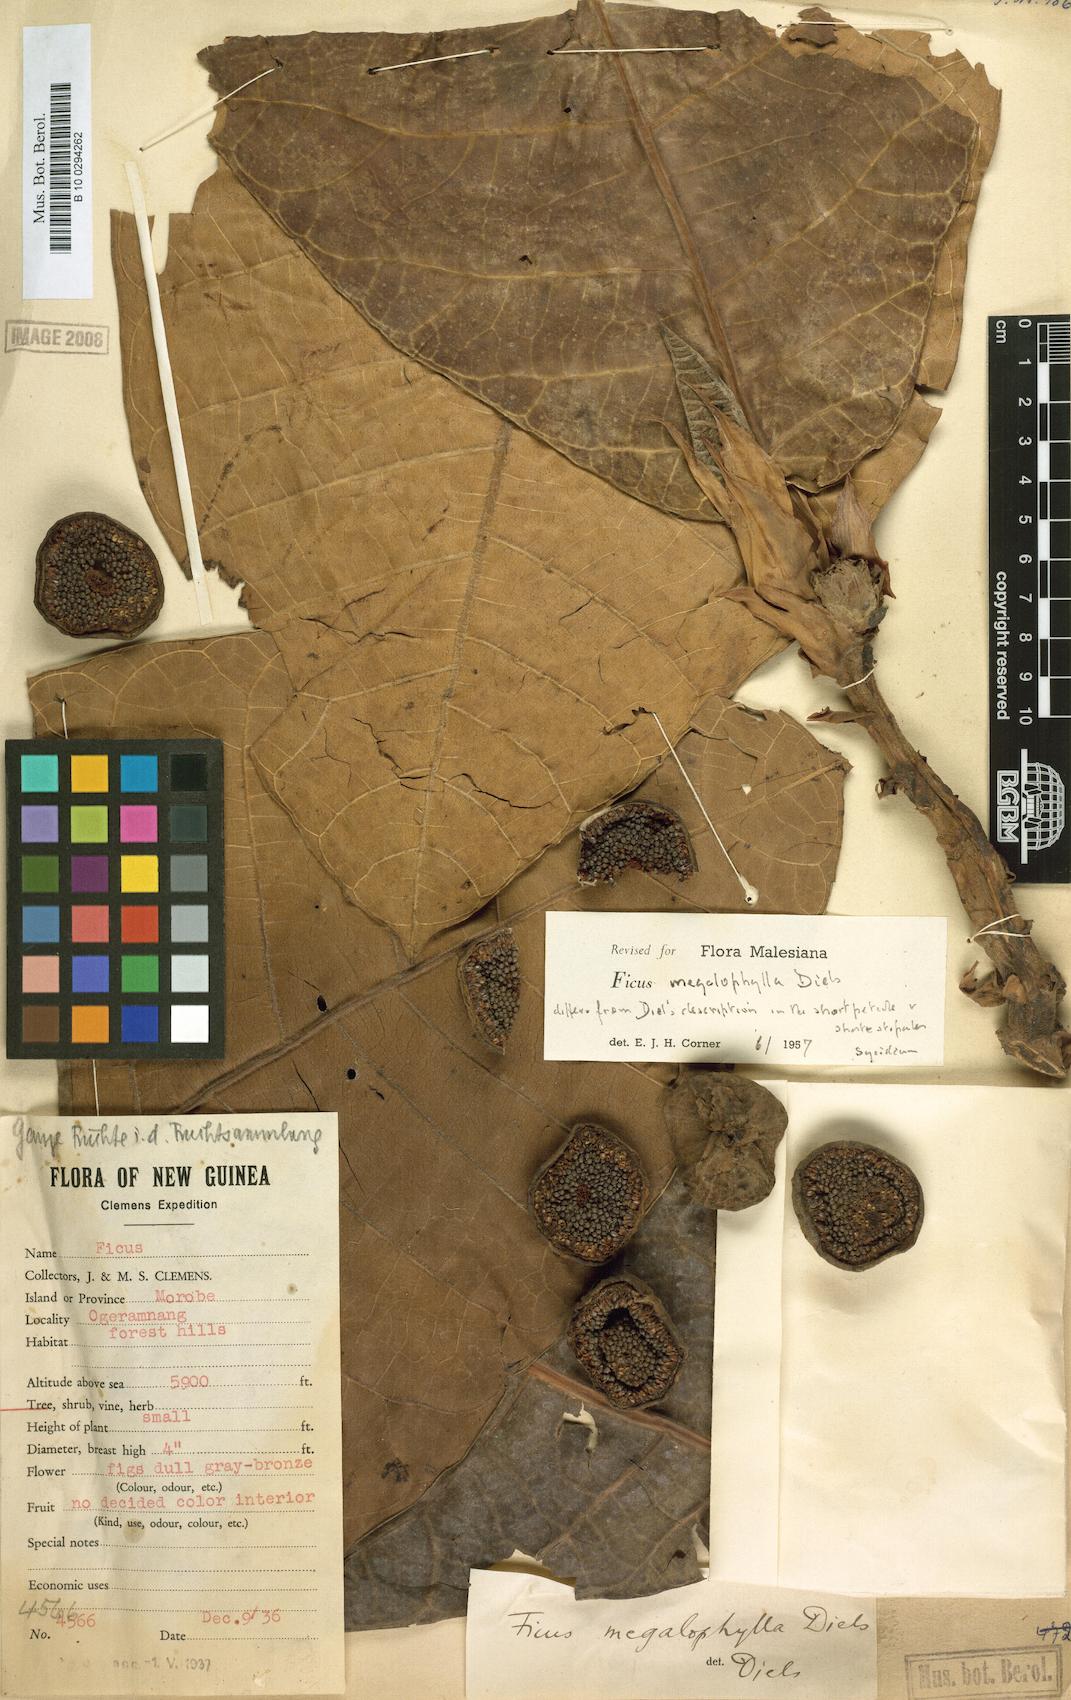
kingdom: Plantae
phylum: Tracheophyta
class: Magnoliopsida
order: Rosales
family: Moraceae
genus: Ficus
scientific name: Ficus megalophylla
